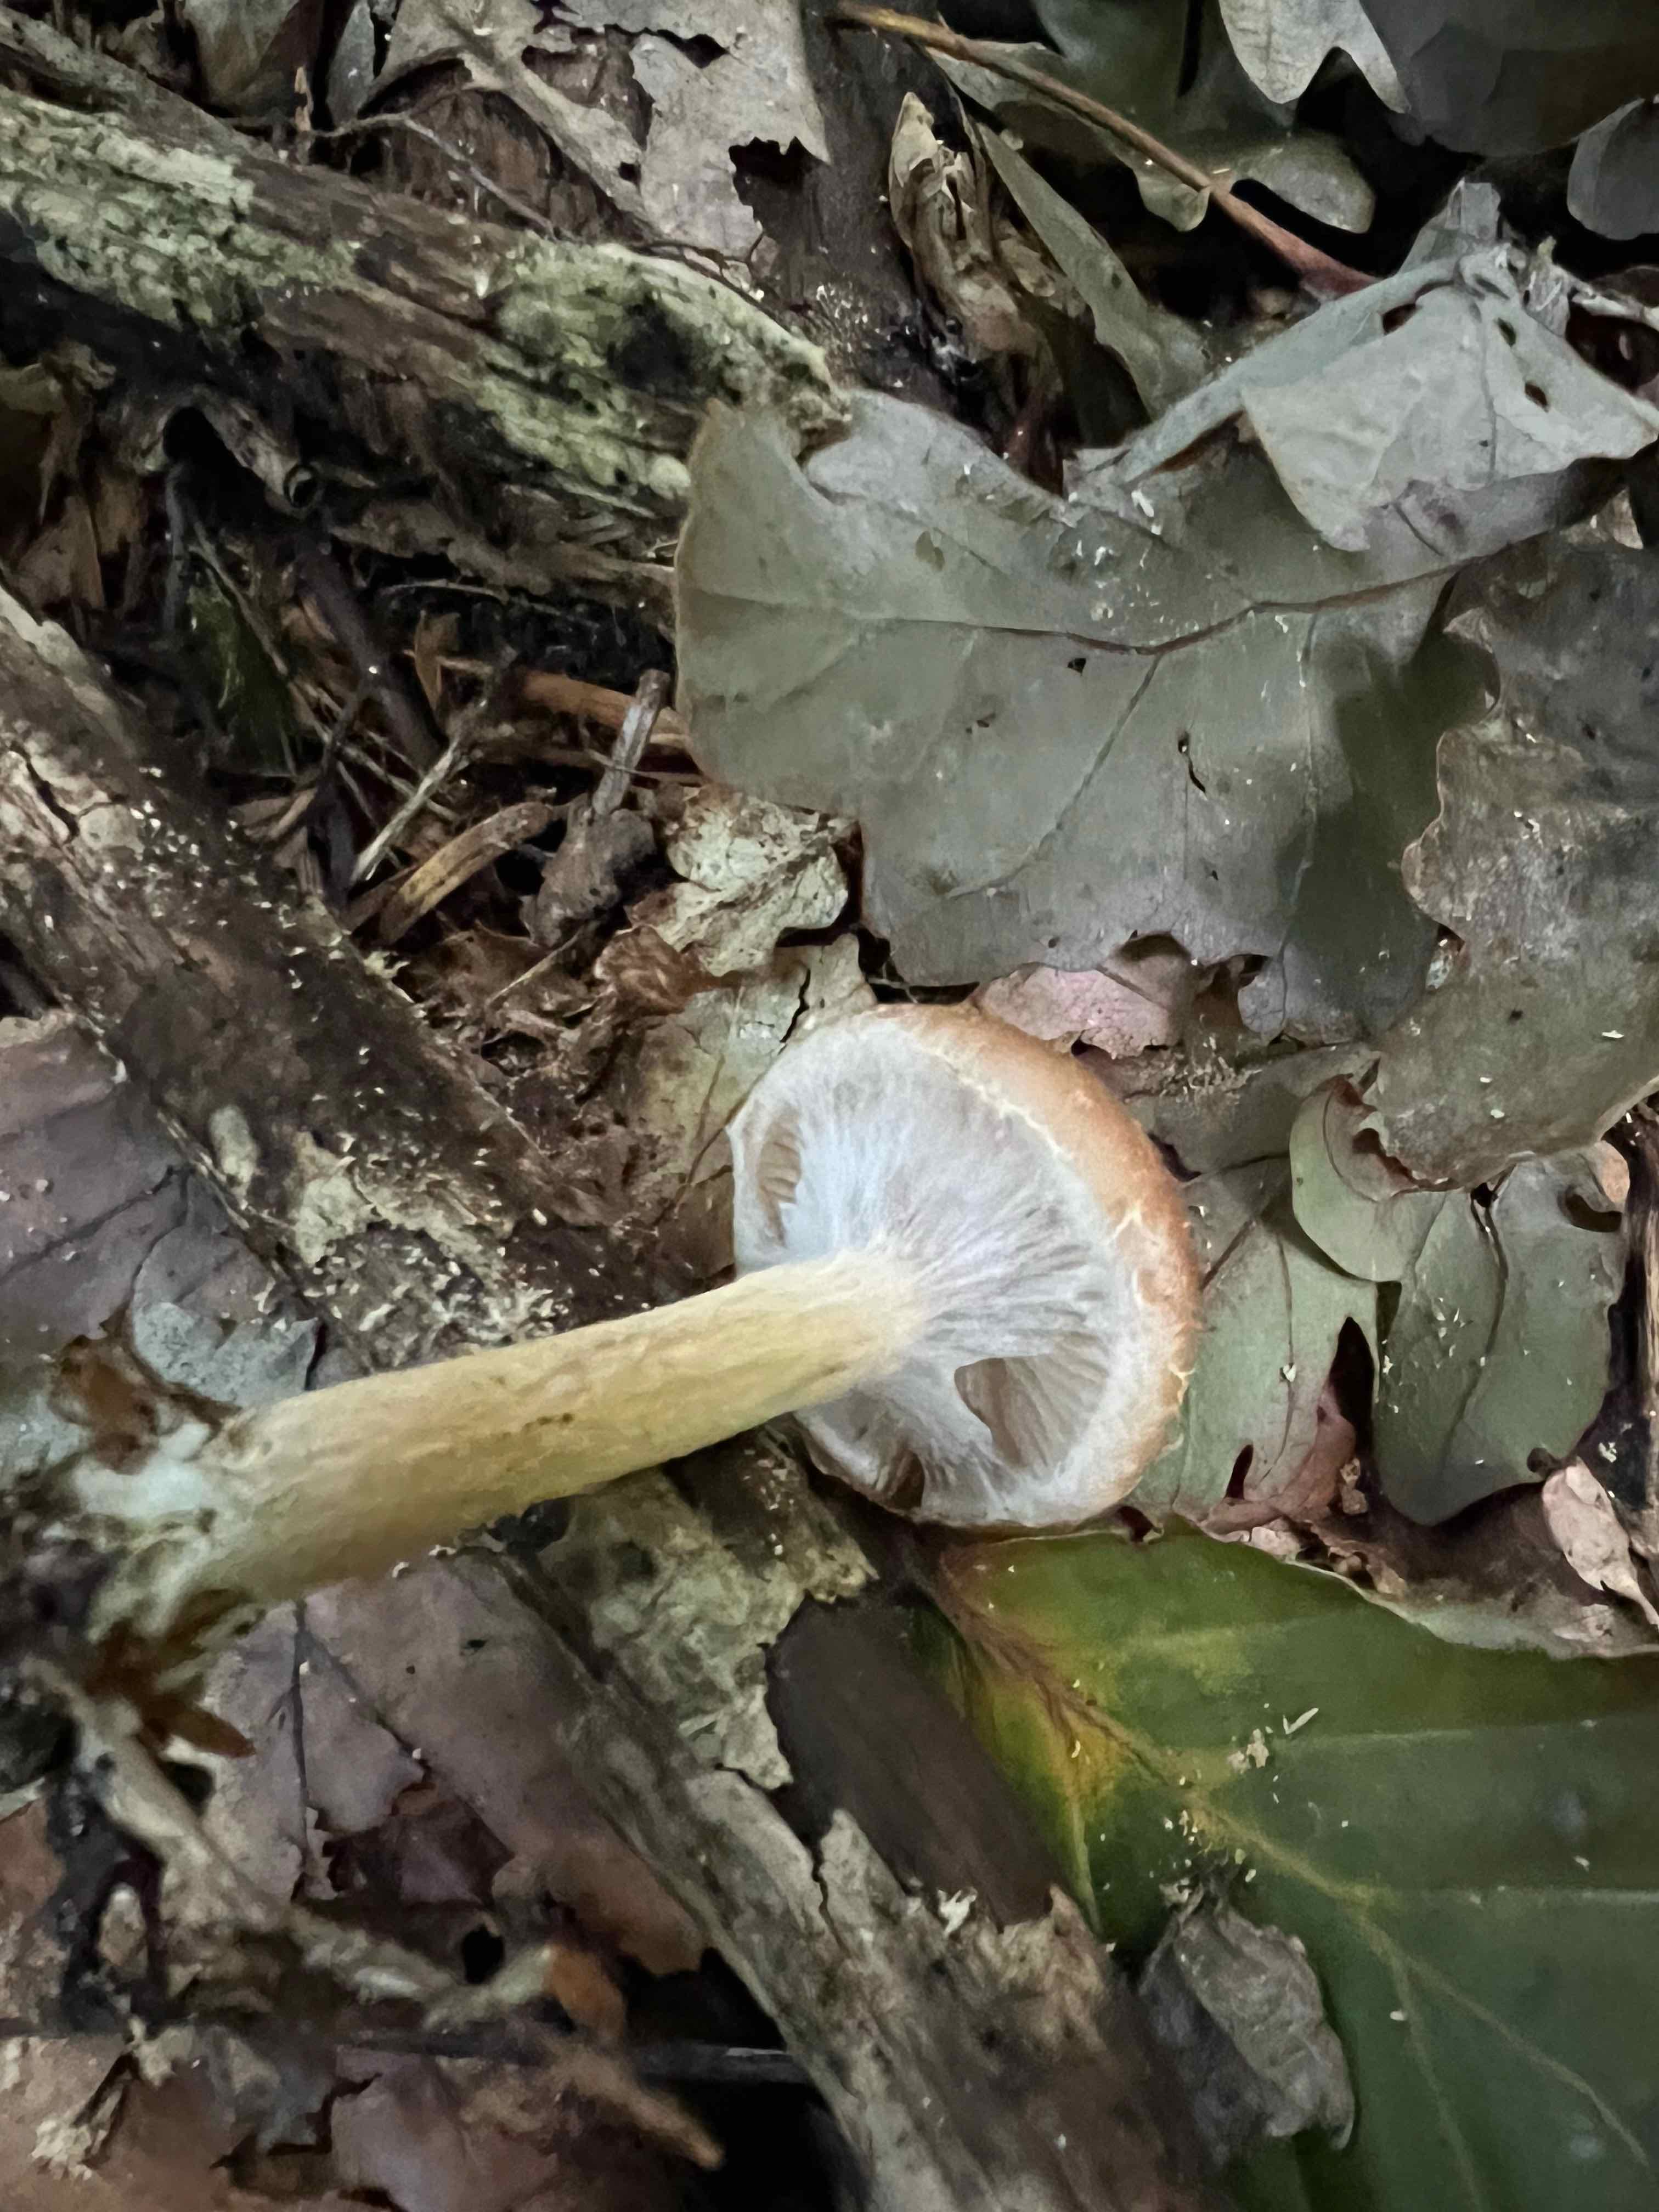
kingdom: Fungi
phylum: Basidiomycota
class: Agaricomycetes
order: Agaricales
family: Physalacriaceae
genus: Armillaria
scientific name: Armillaria
